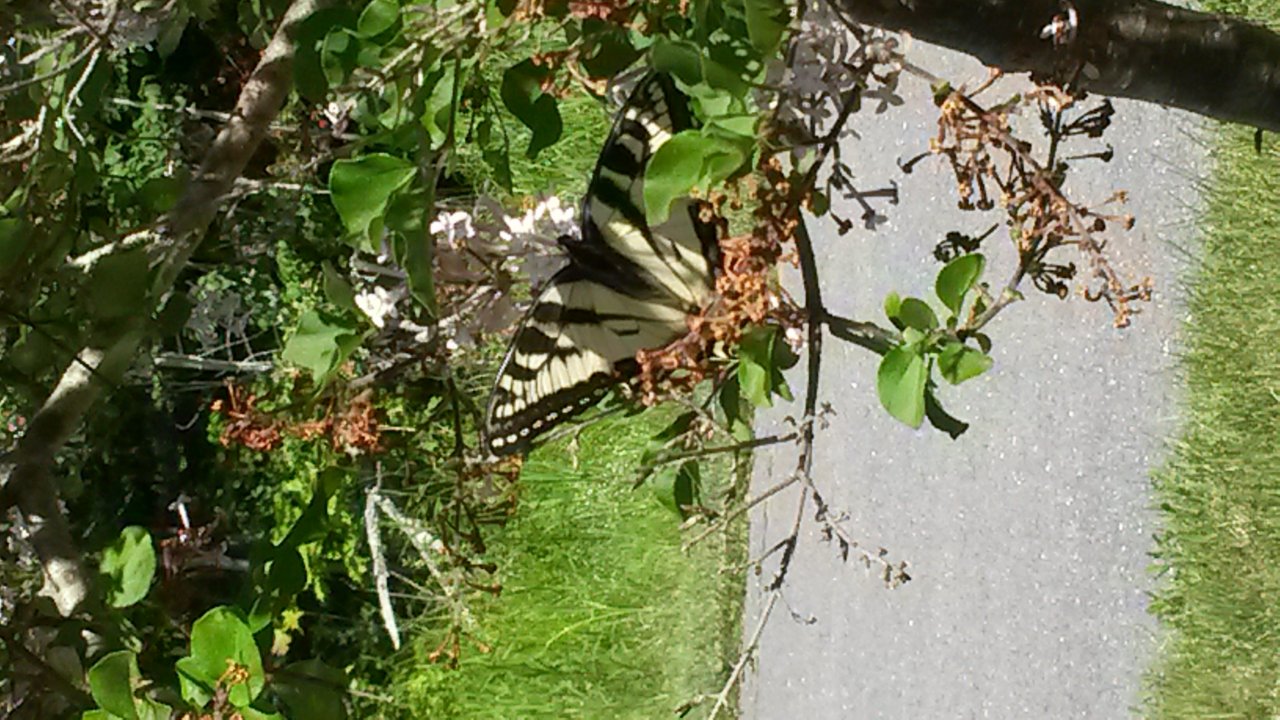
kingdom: Animalia
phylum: Arthropoda
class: Insecta
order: Lepidoptera
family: Papilionidae
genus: Papilio
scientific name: Papilio
